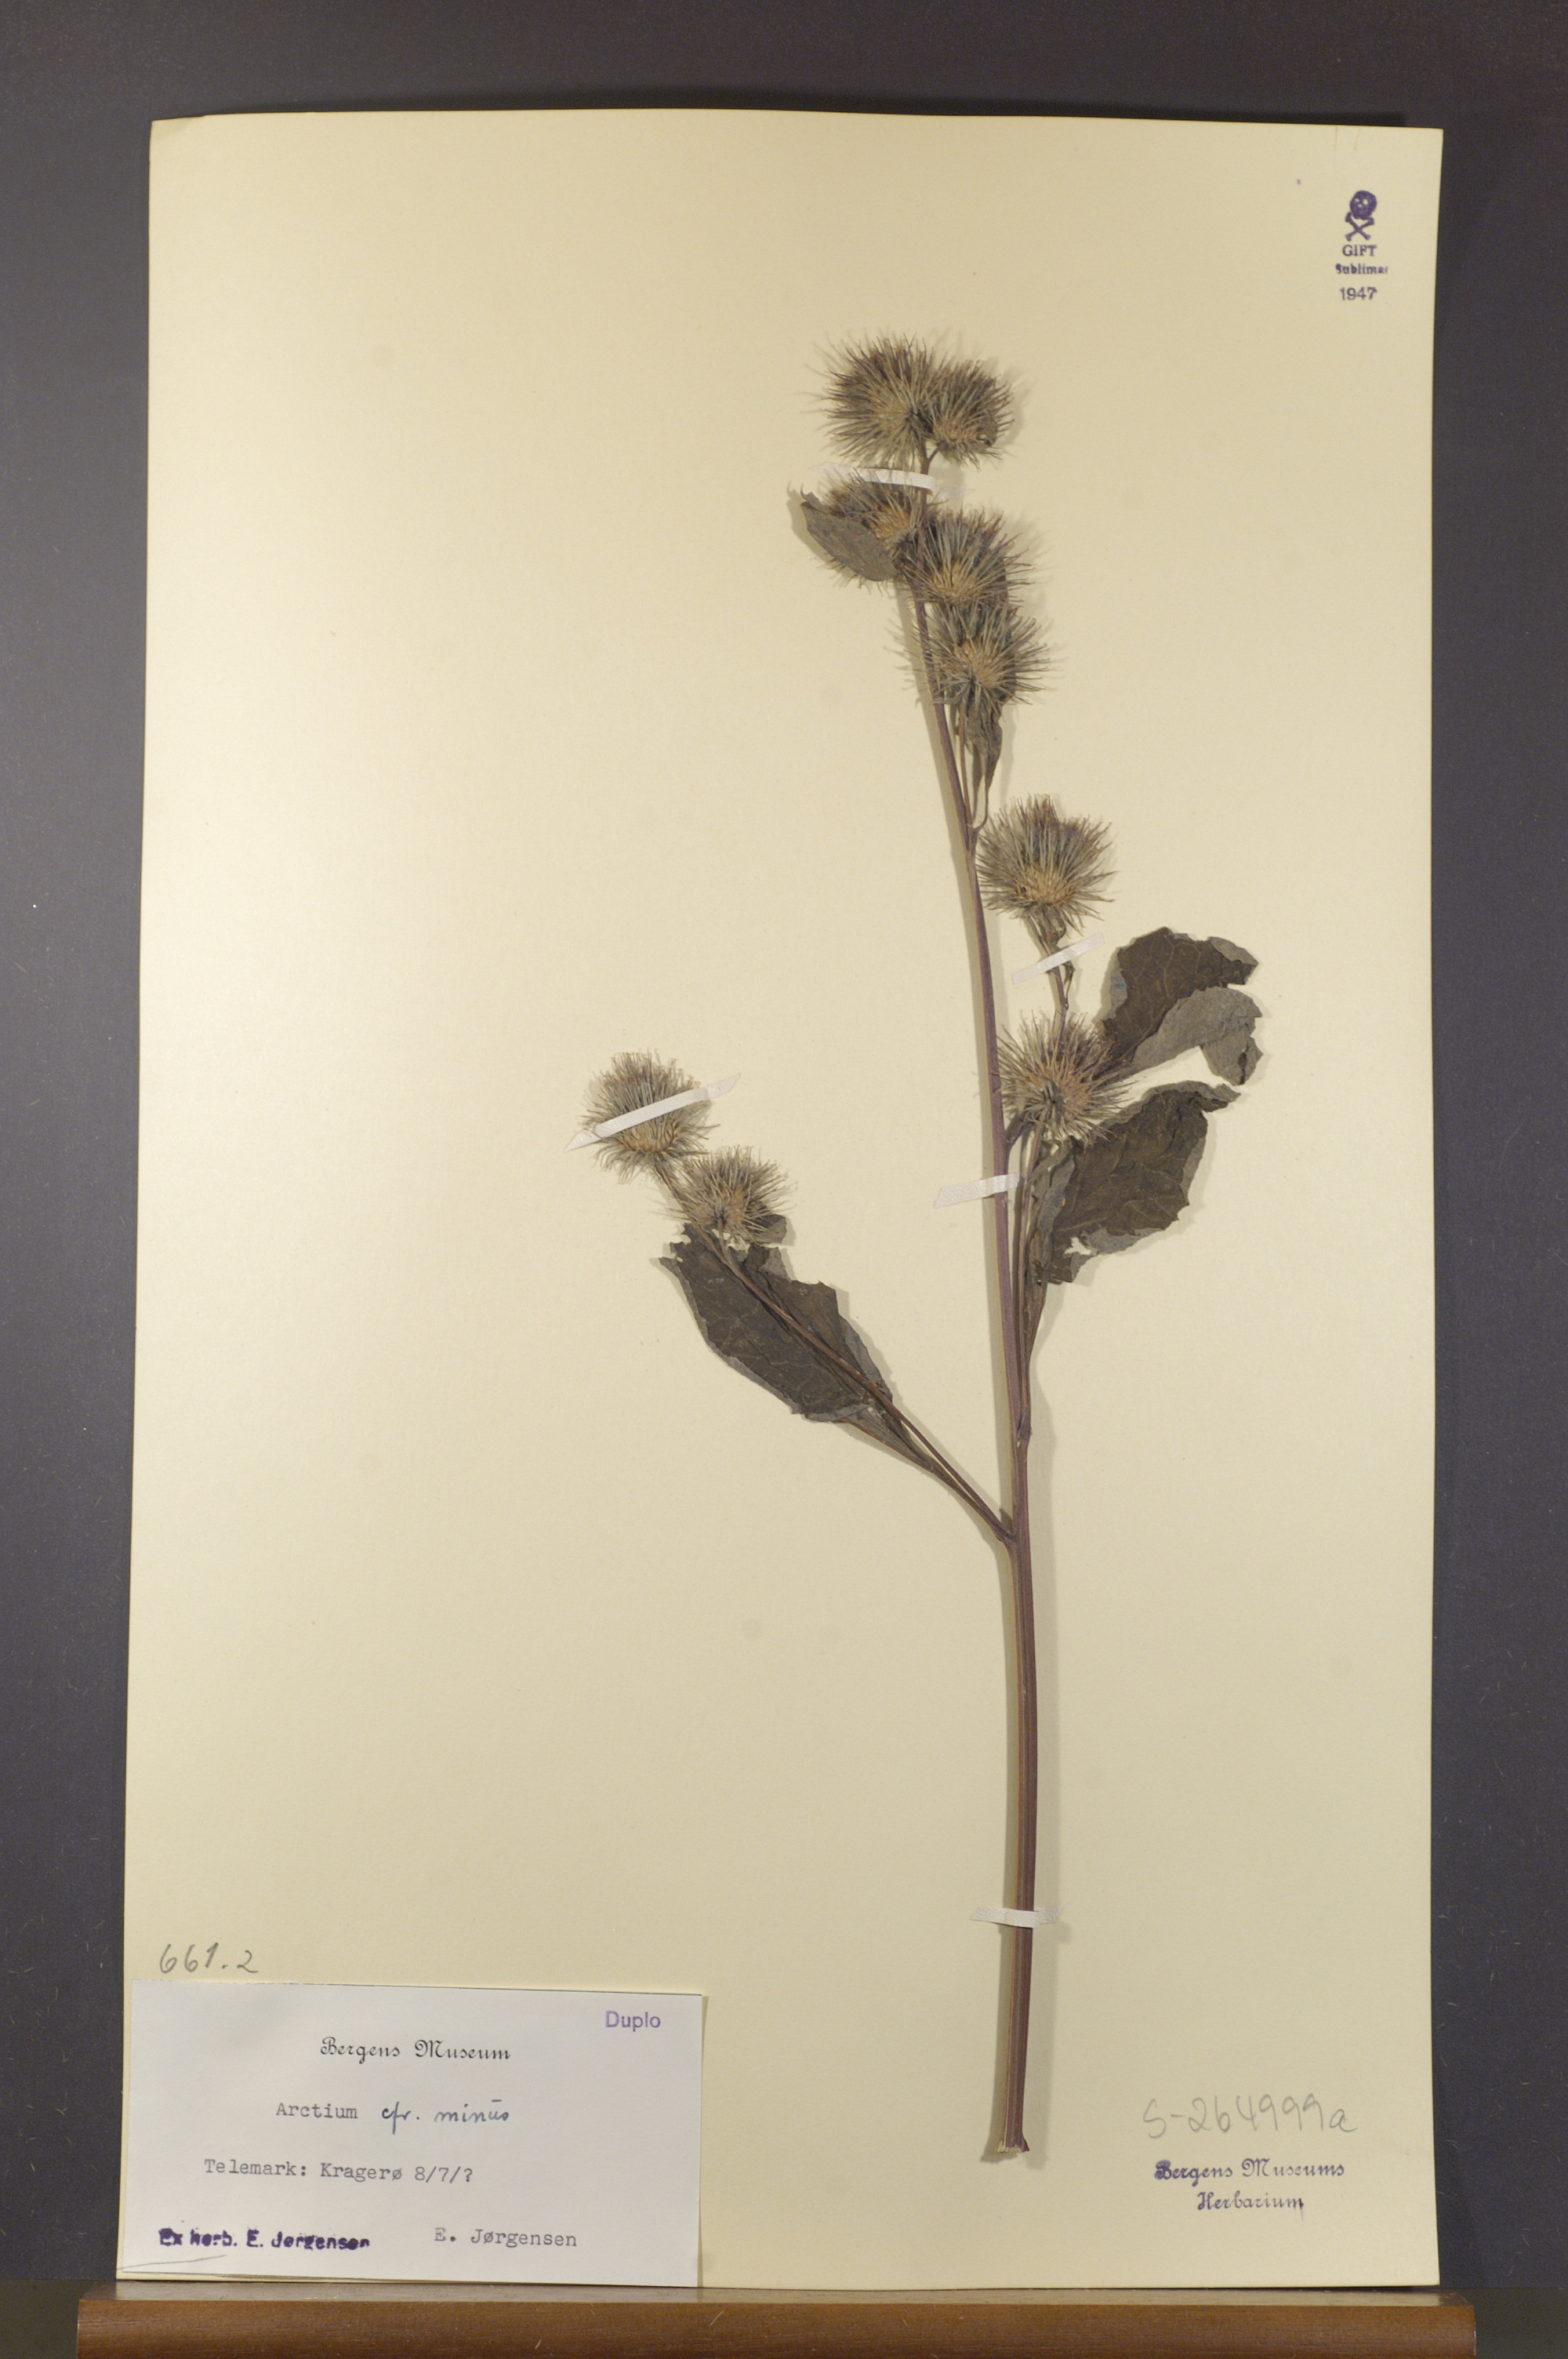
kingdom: Plantae
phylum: Tracheophyta
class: Magnoliopsida
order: Asterales
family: Asteraceae
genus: Arctium
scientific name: Arctium minus
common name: Lesser burdock
